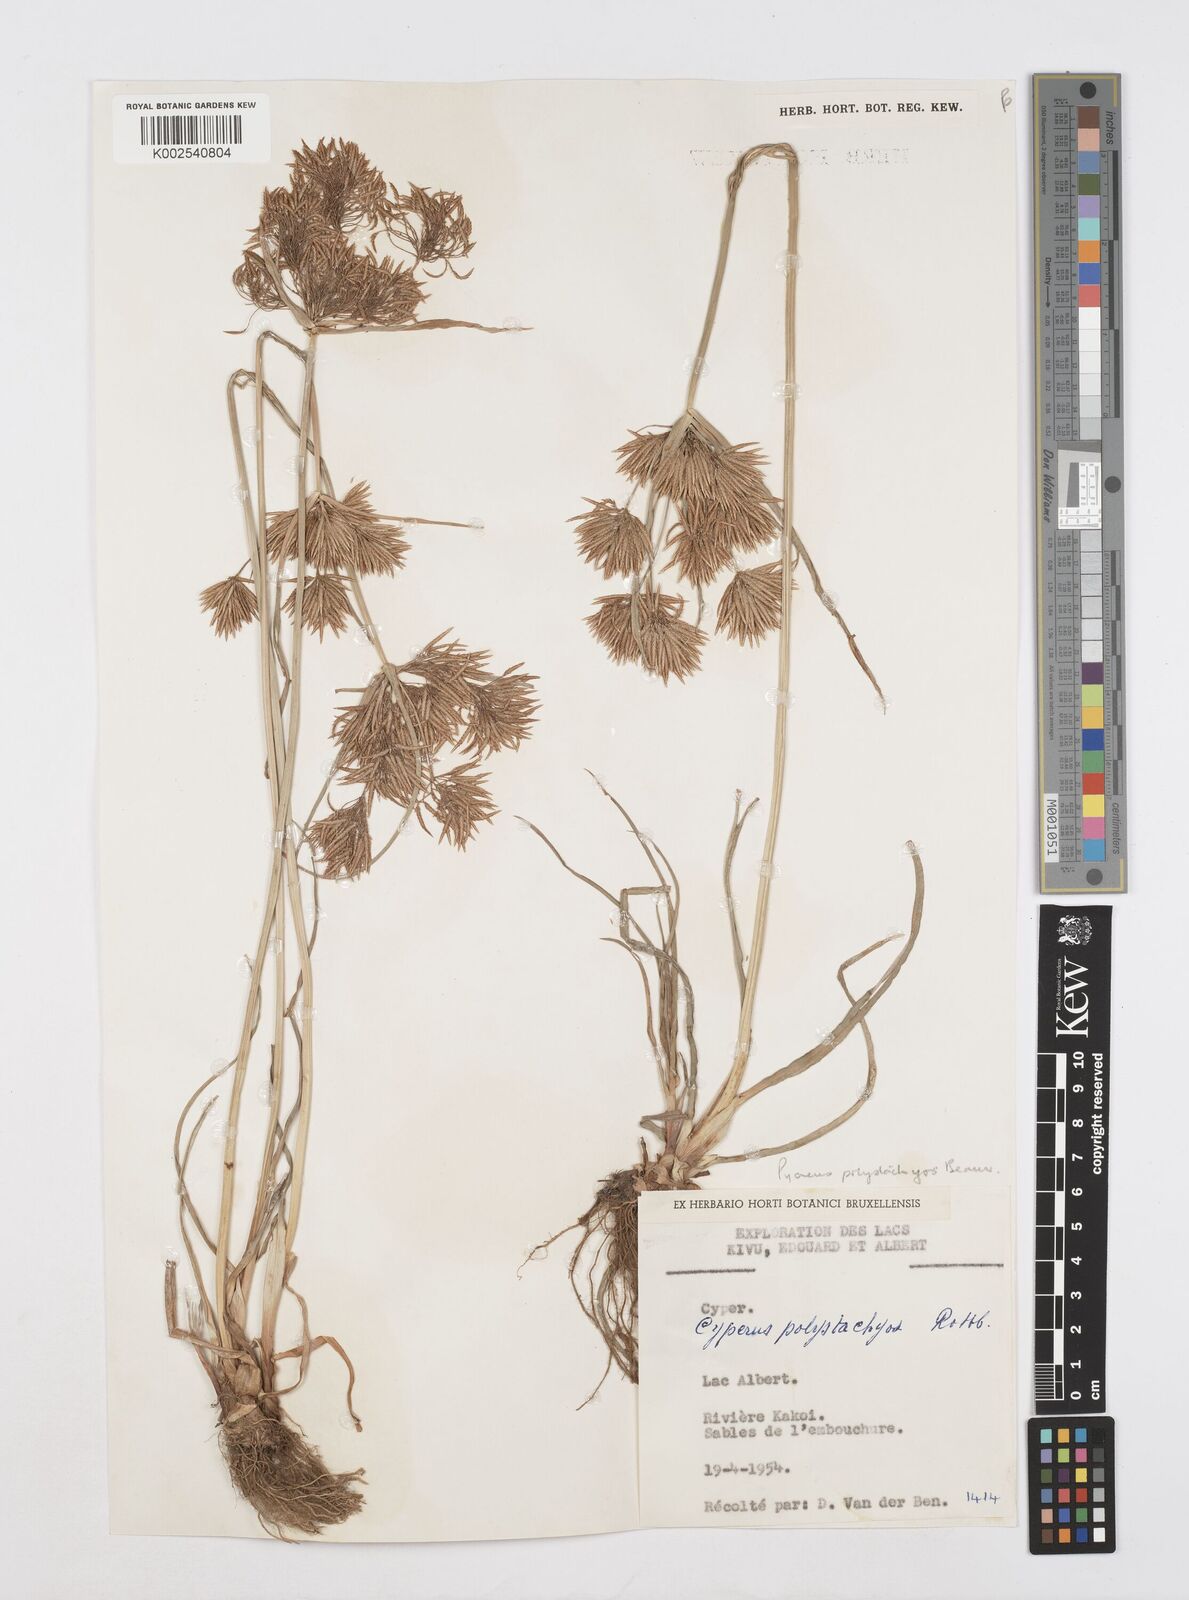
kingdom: Plantae
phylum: Tracheophyta
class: Liliopsida
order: Poales
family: Cyperaceae
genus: Cyperus
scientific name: Cyperus polystachyos
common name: Bunchy flat sedge
